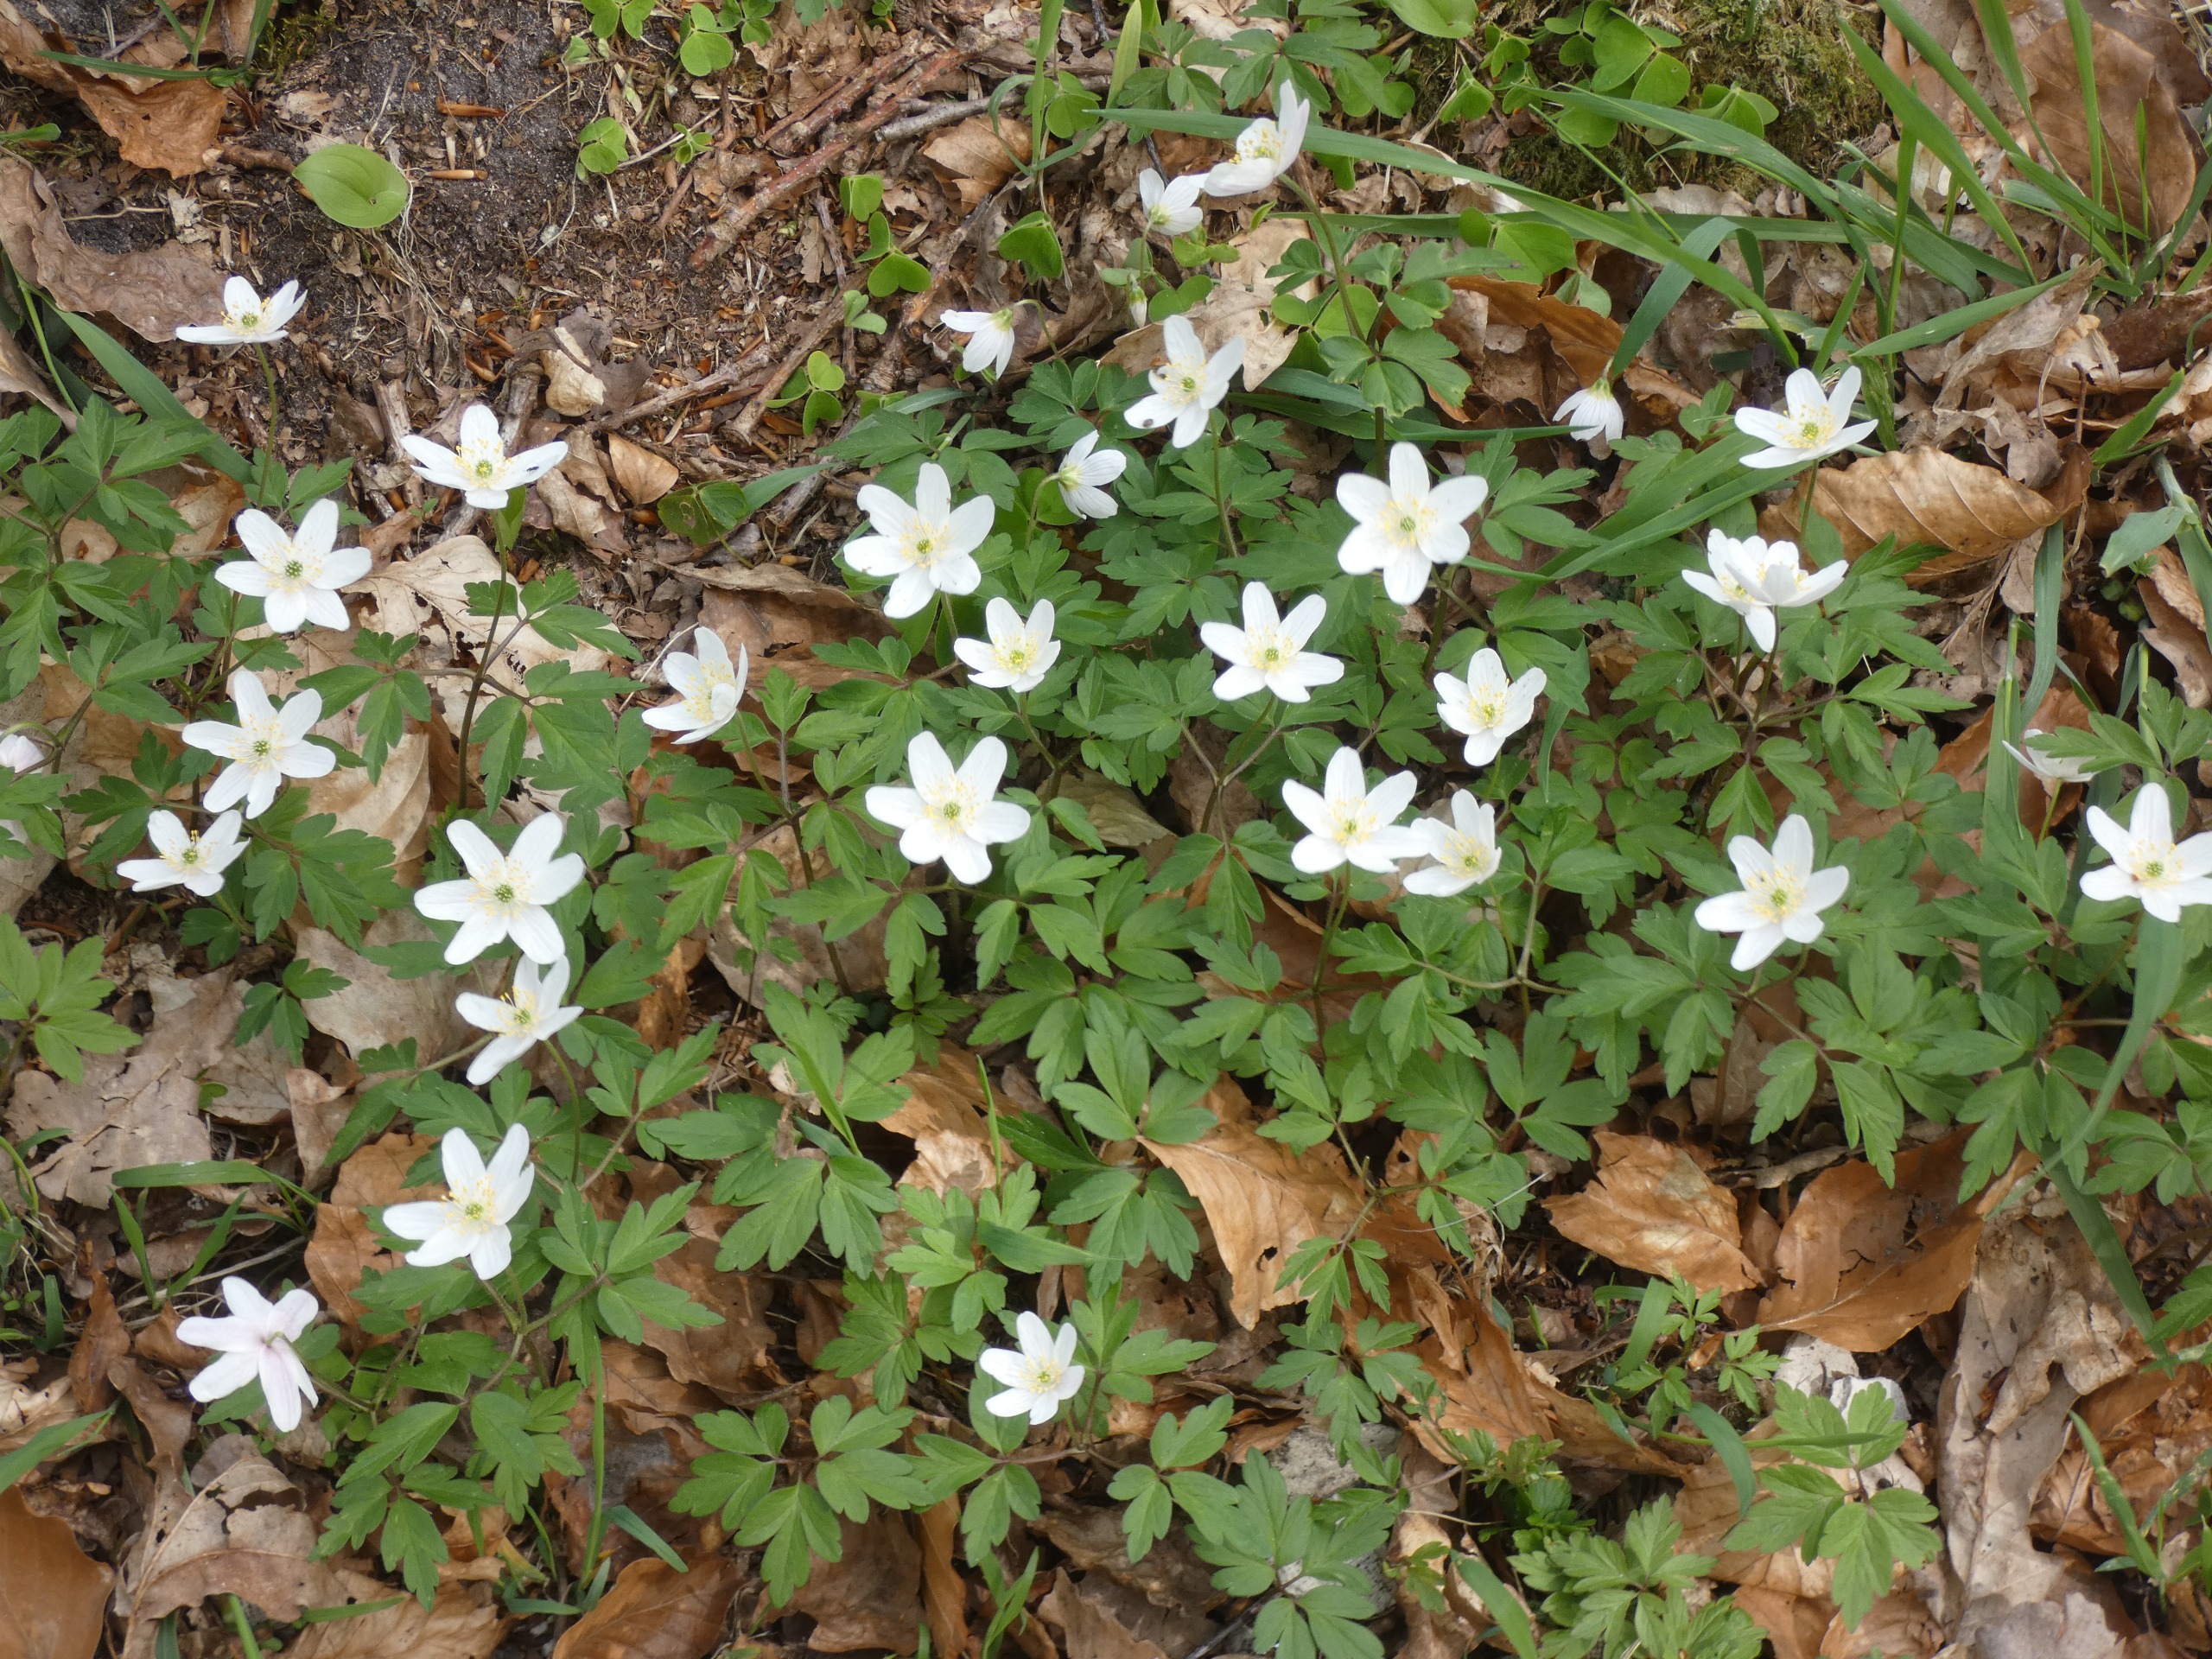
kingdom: Plantae
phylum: Tracheophyta
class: Magnoliopsida
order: Ranunculales
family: Ranunculaceae
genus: Anemone
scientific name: Anemone nemorosa
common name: Hvid anemone
